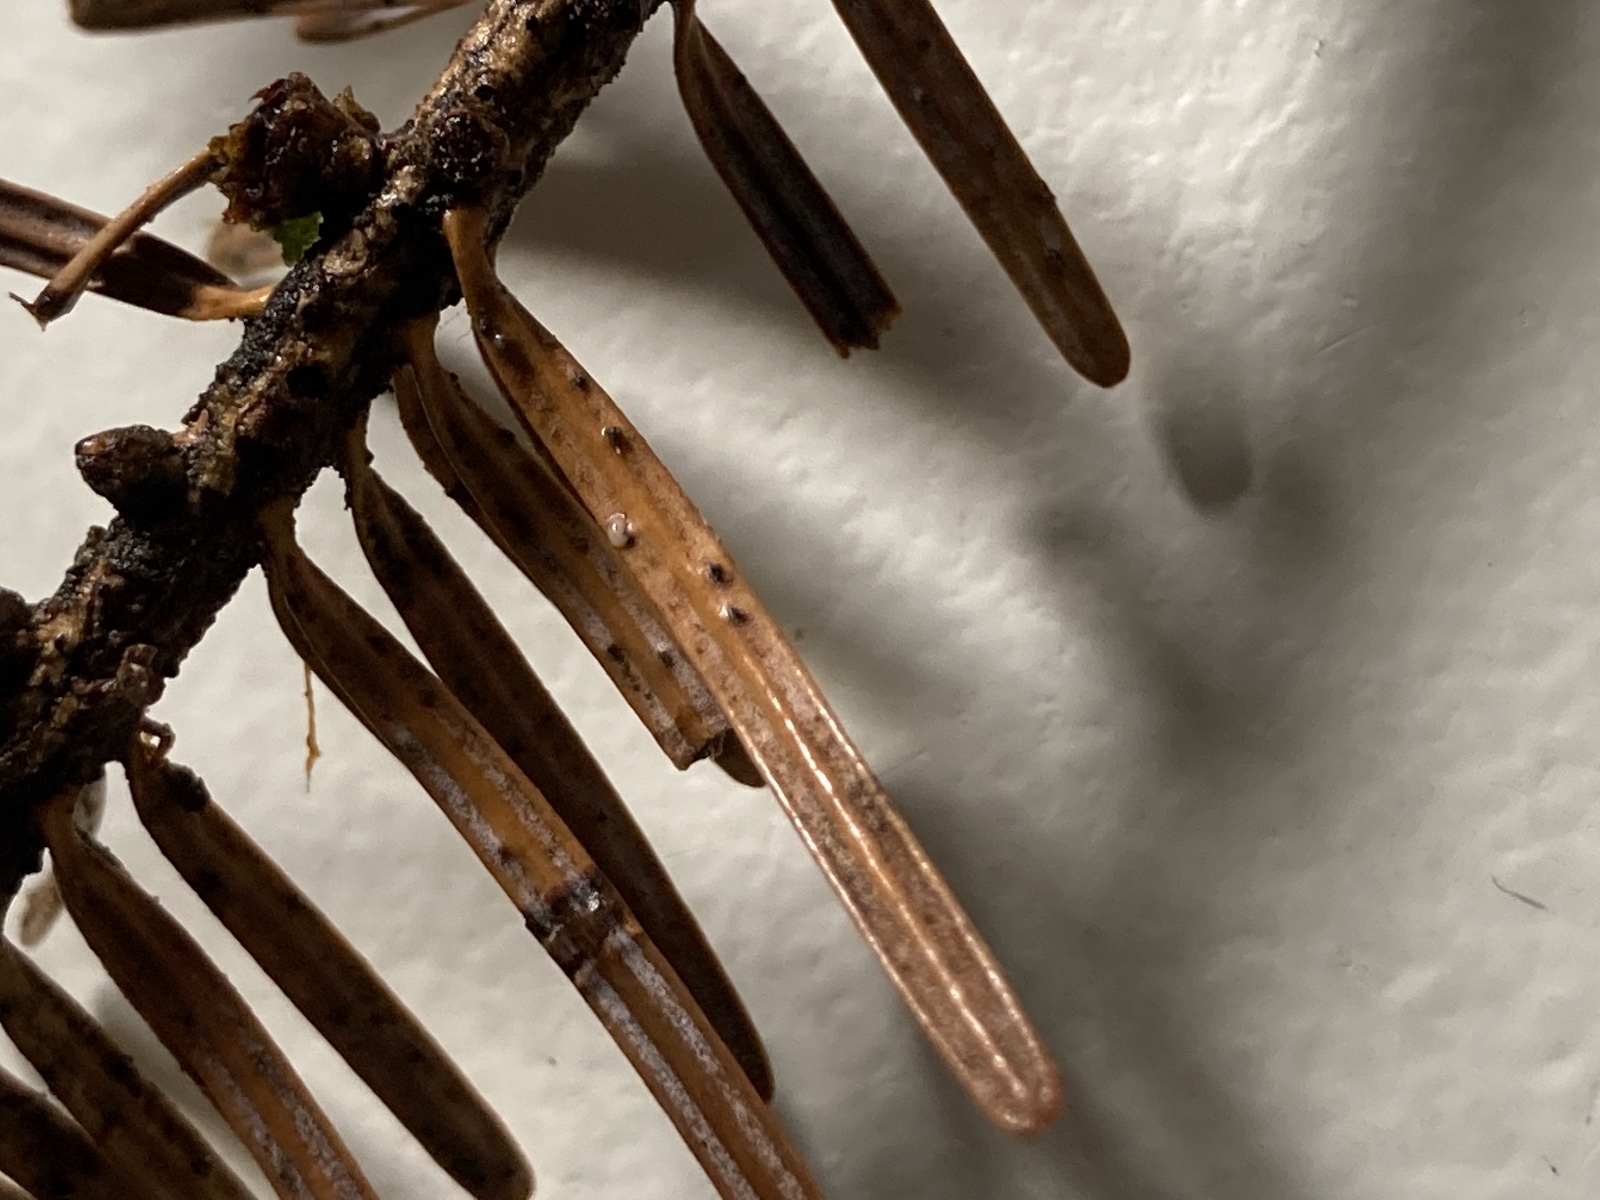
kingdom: Fungi
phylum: Ascomycota
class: Sordariomycetes
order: Diaporthales
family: Valsaceae
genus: Cytospora
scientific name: Cytospora pinastri
